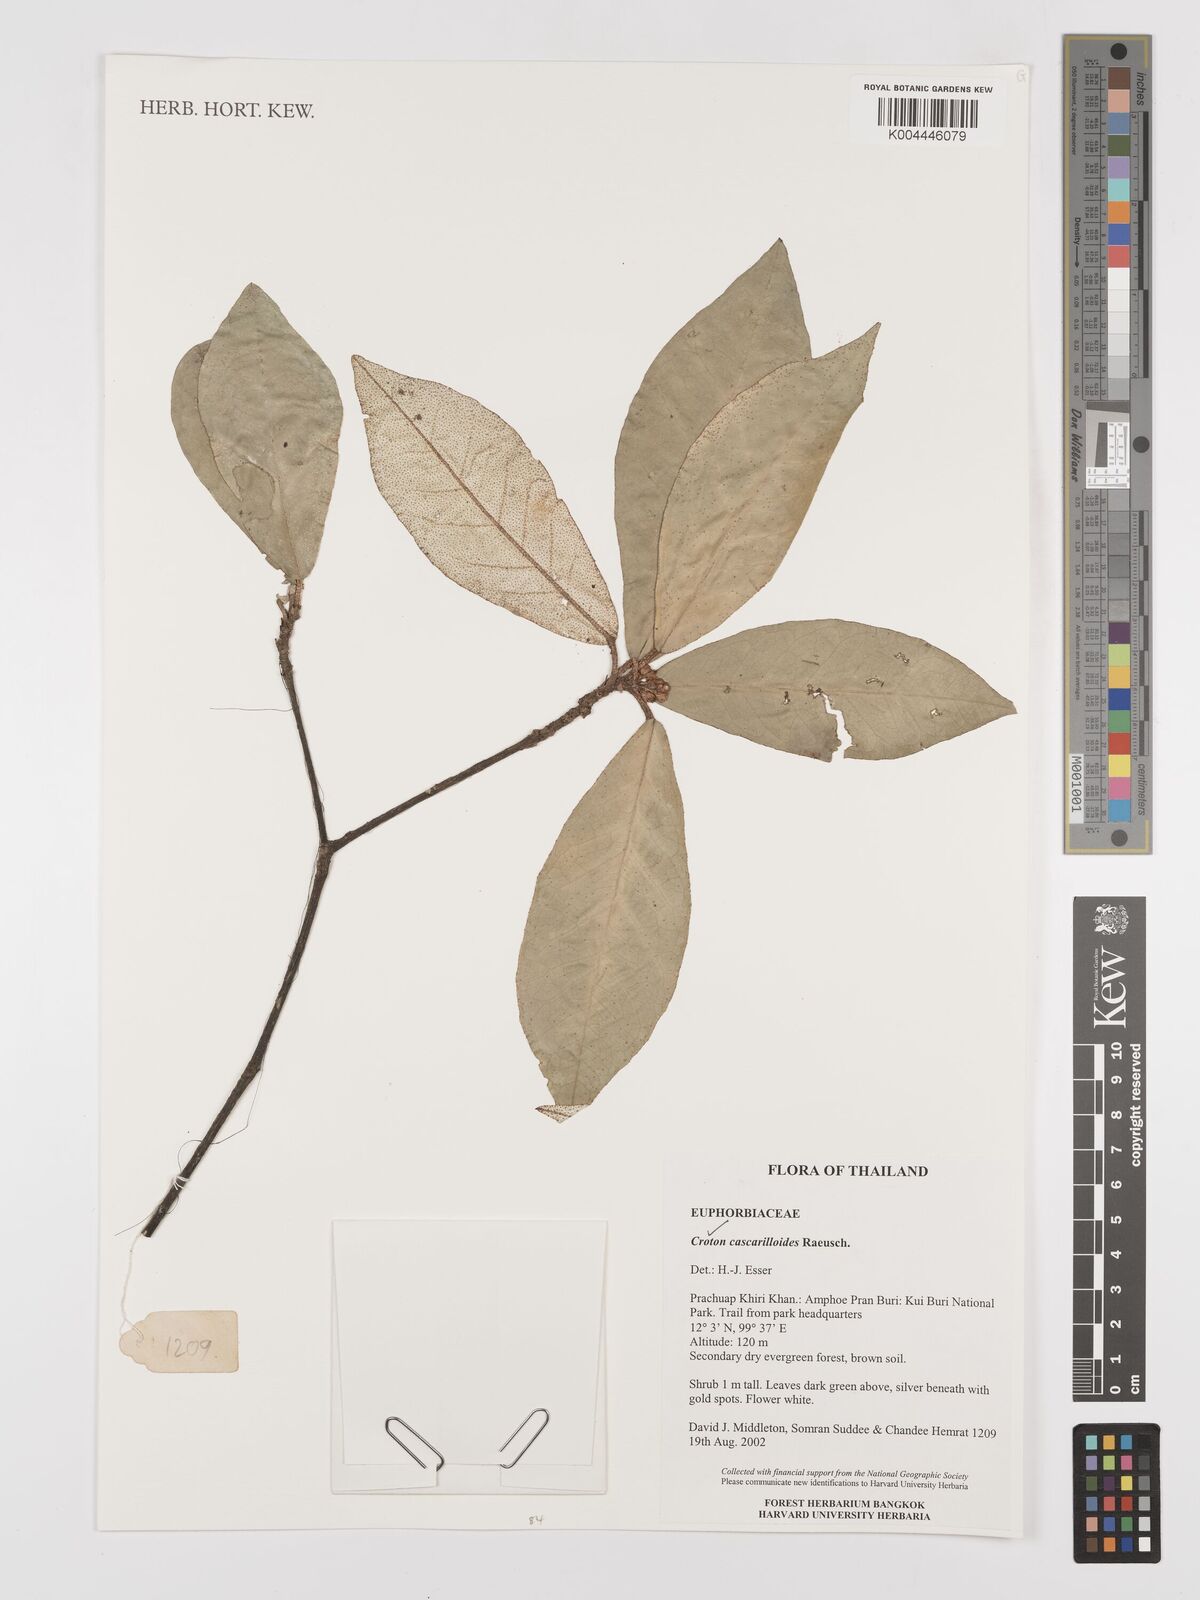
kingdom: Plantae
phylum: Tracheophyta
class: Magnoliopsida
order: Malpighiales
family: Euphorbiaceae
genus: Croton
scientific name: Croton cascarilloides
